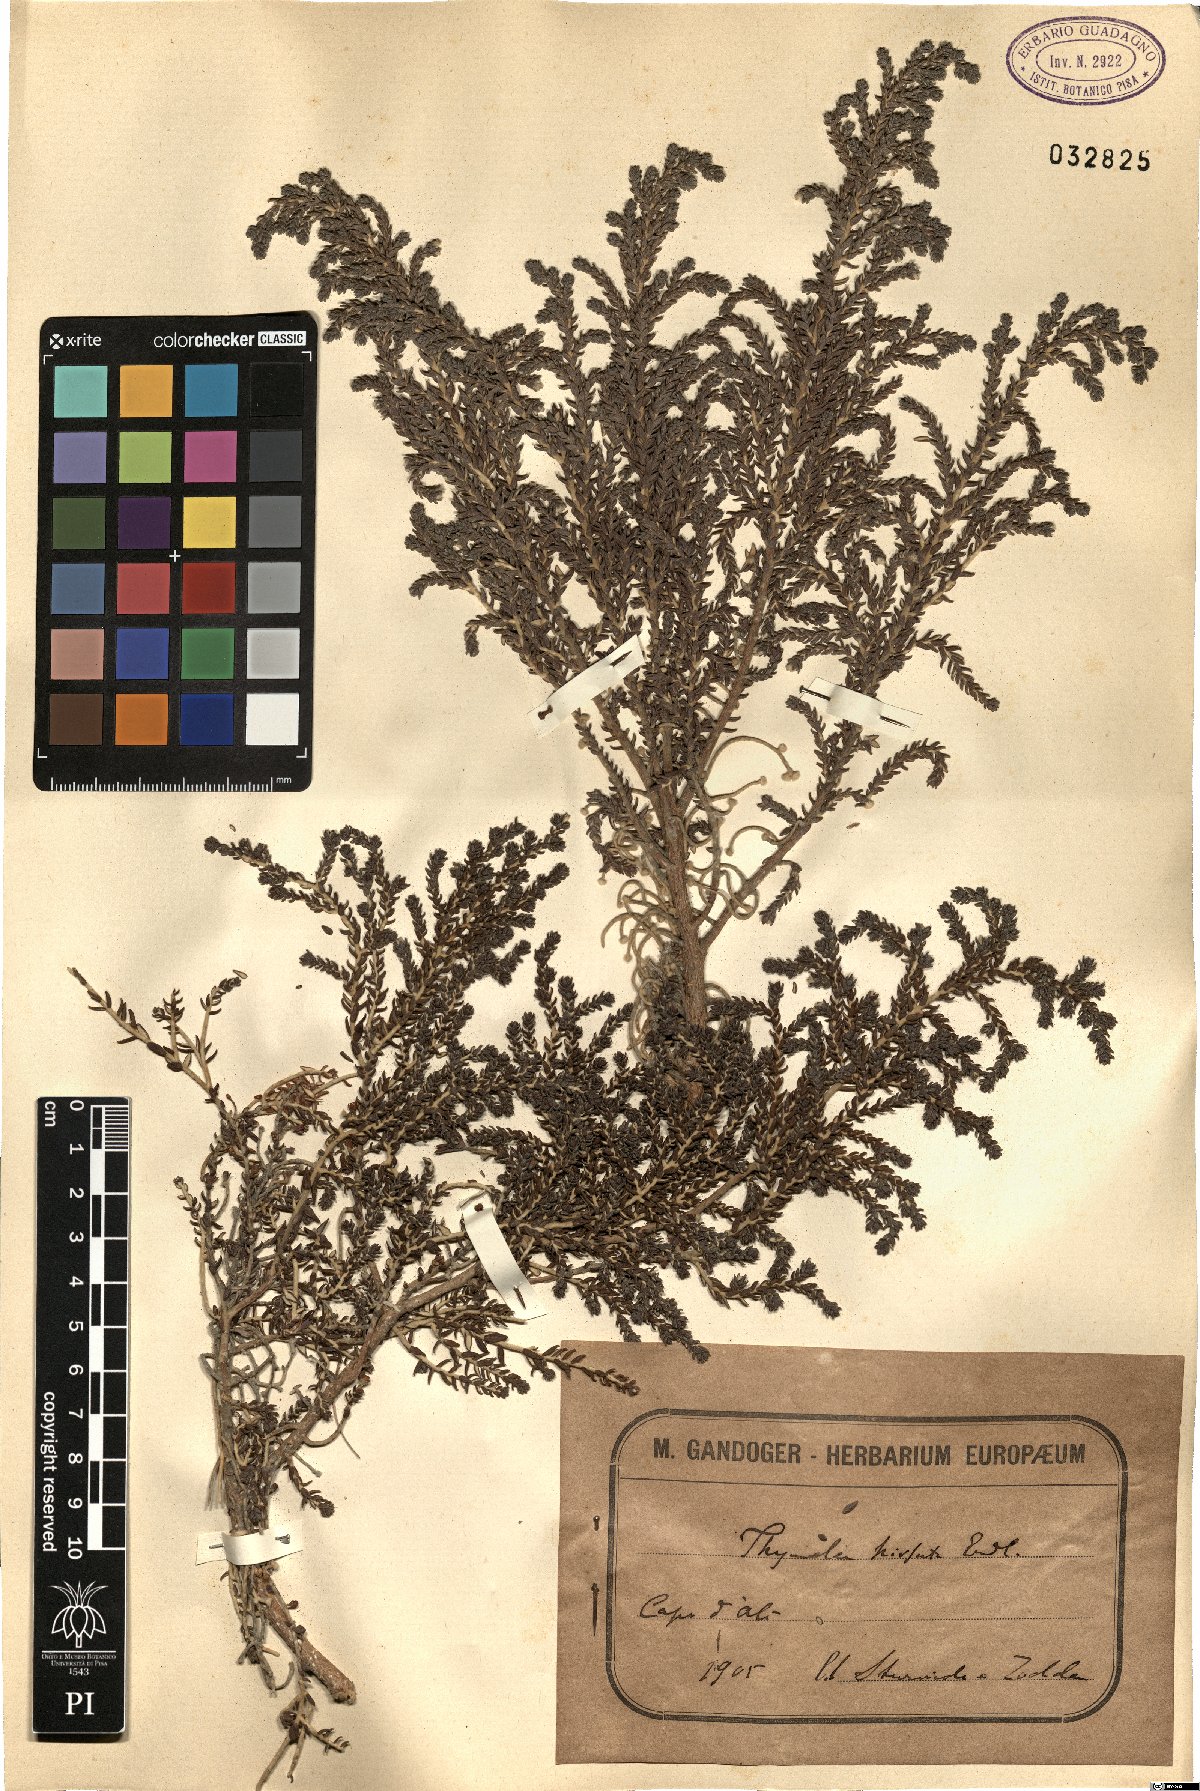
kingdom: Plantae
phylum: Tracheophyta
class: Magnoliopsida
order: Malvales
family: Thymelaeaceae
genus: Thymelaea
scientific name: Thymelaea hirsuta
